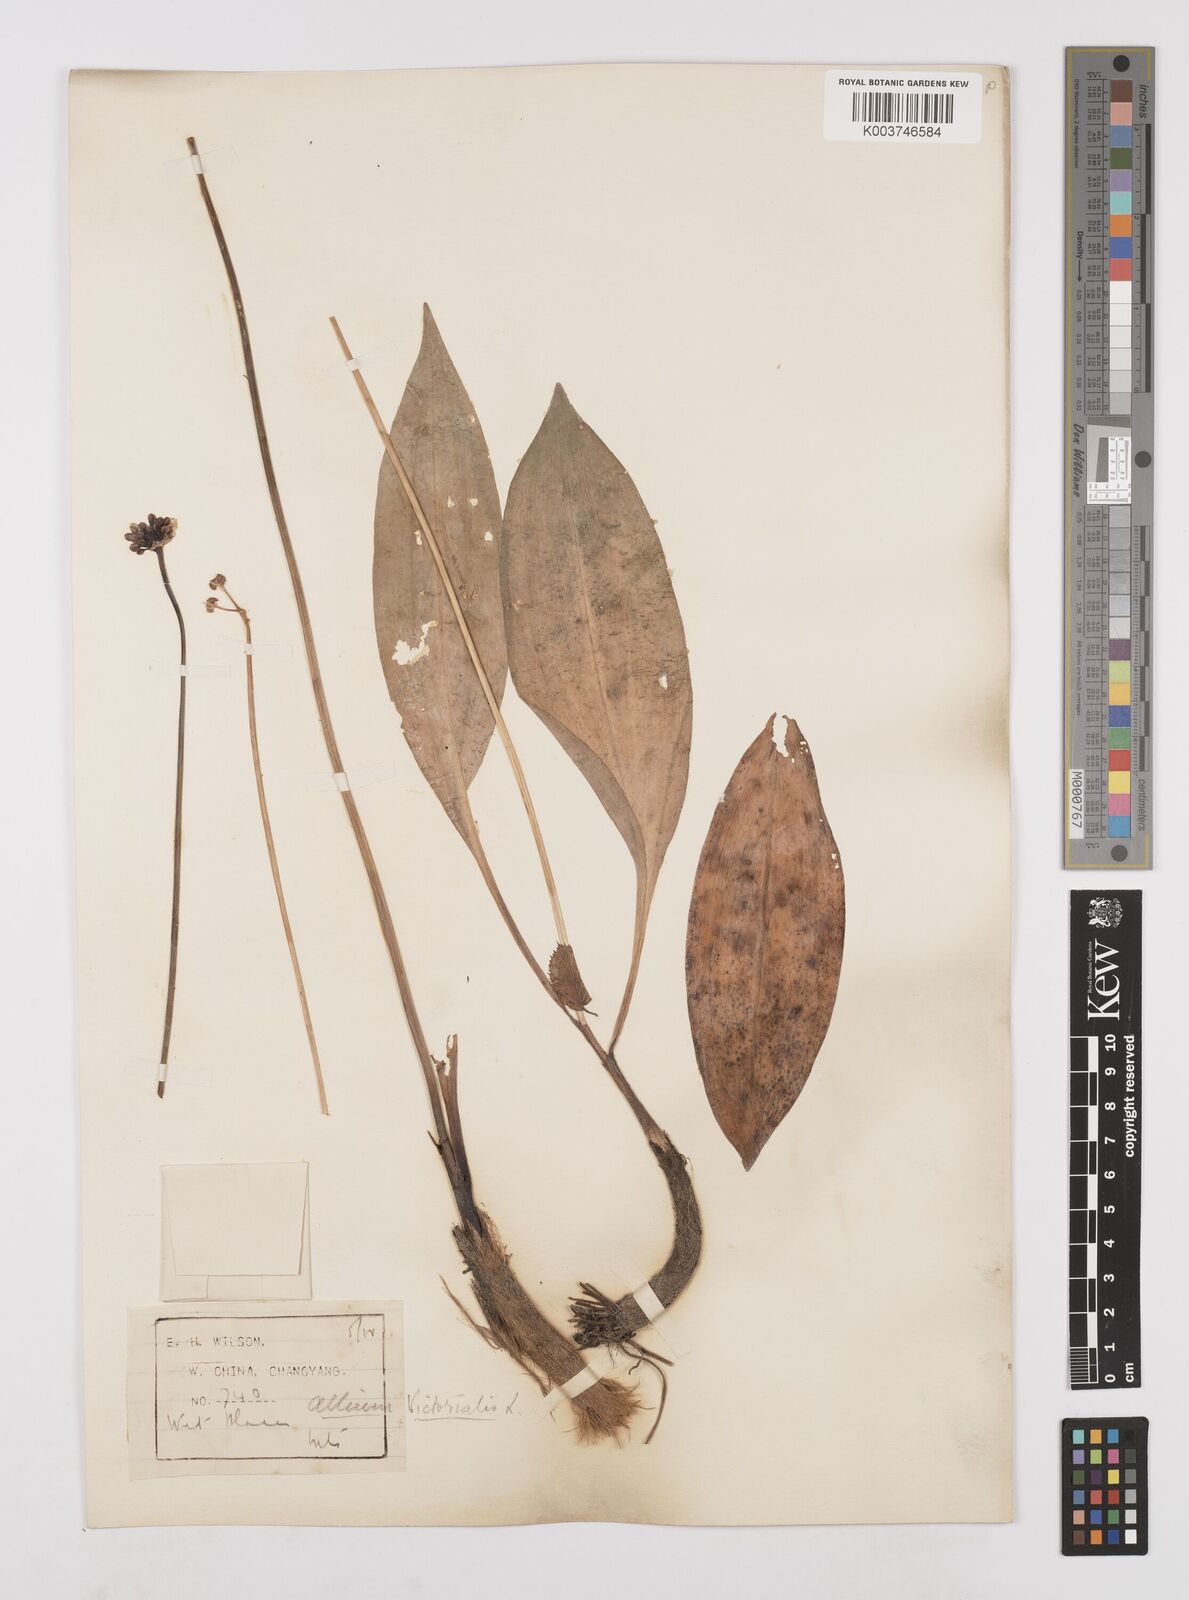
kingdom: Plantae
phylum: Tracheophyta
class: Liliopsida
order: Asparagales
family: Amaryllidaceae
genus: Allium
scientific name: Allium victorialis
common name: Alpine leek
